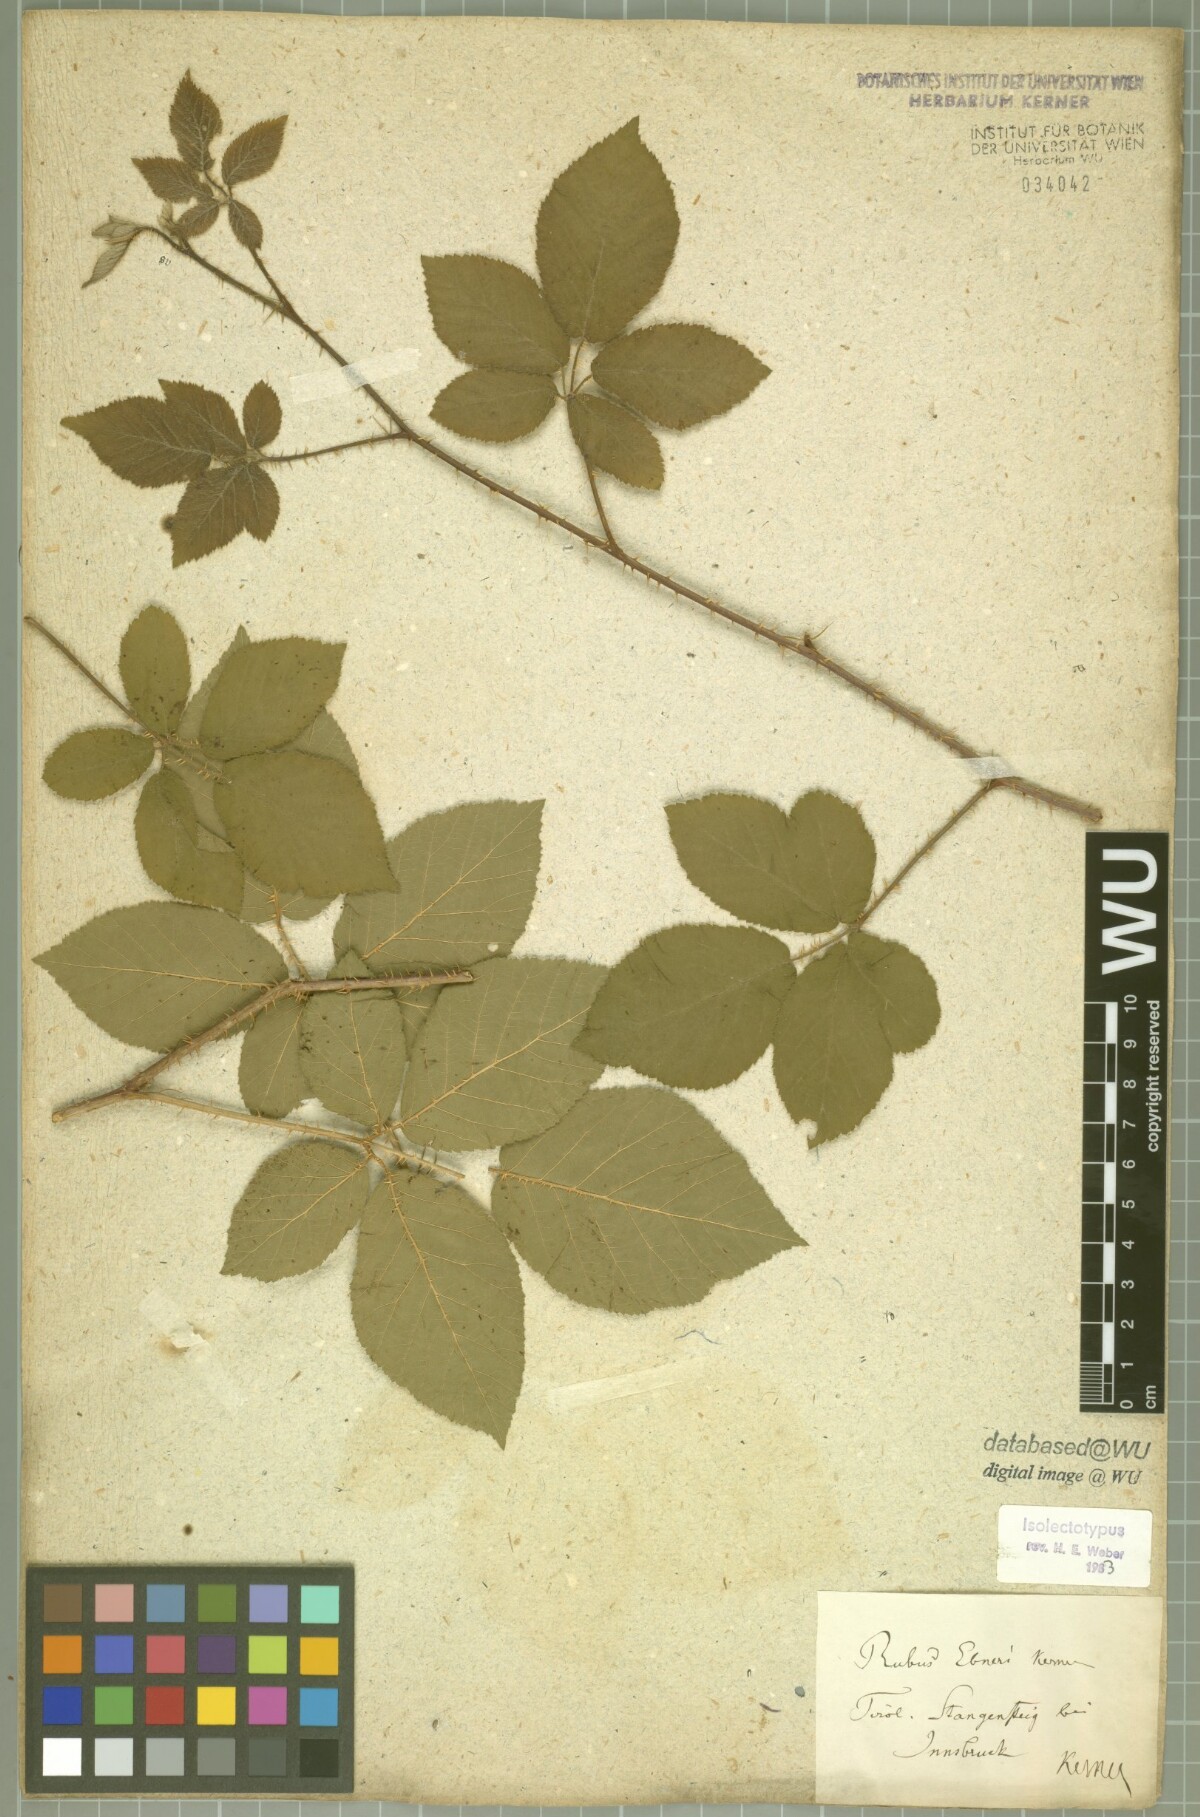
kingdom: Plantae
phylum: Tracheophyta
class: Magnoliopsida
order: Rosales
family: Rosaceae
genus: Rubus
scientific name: Rubus ebneri
